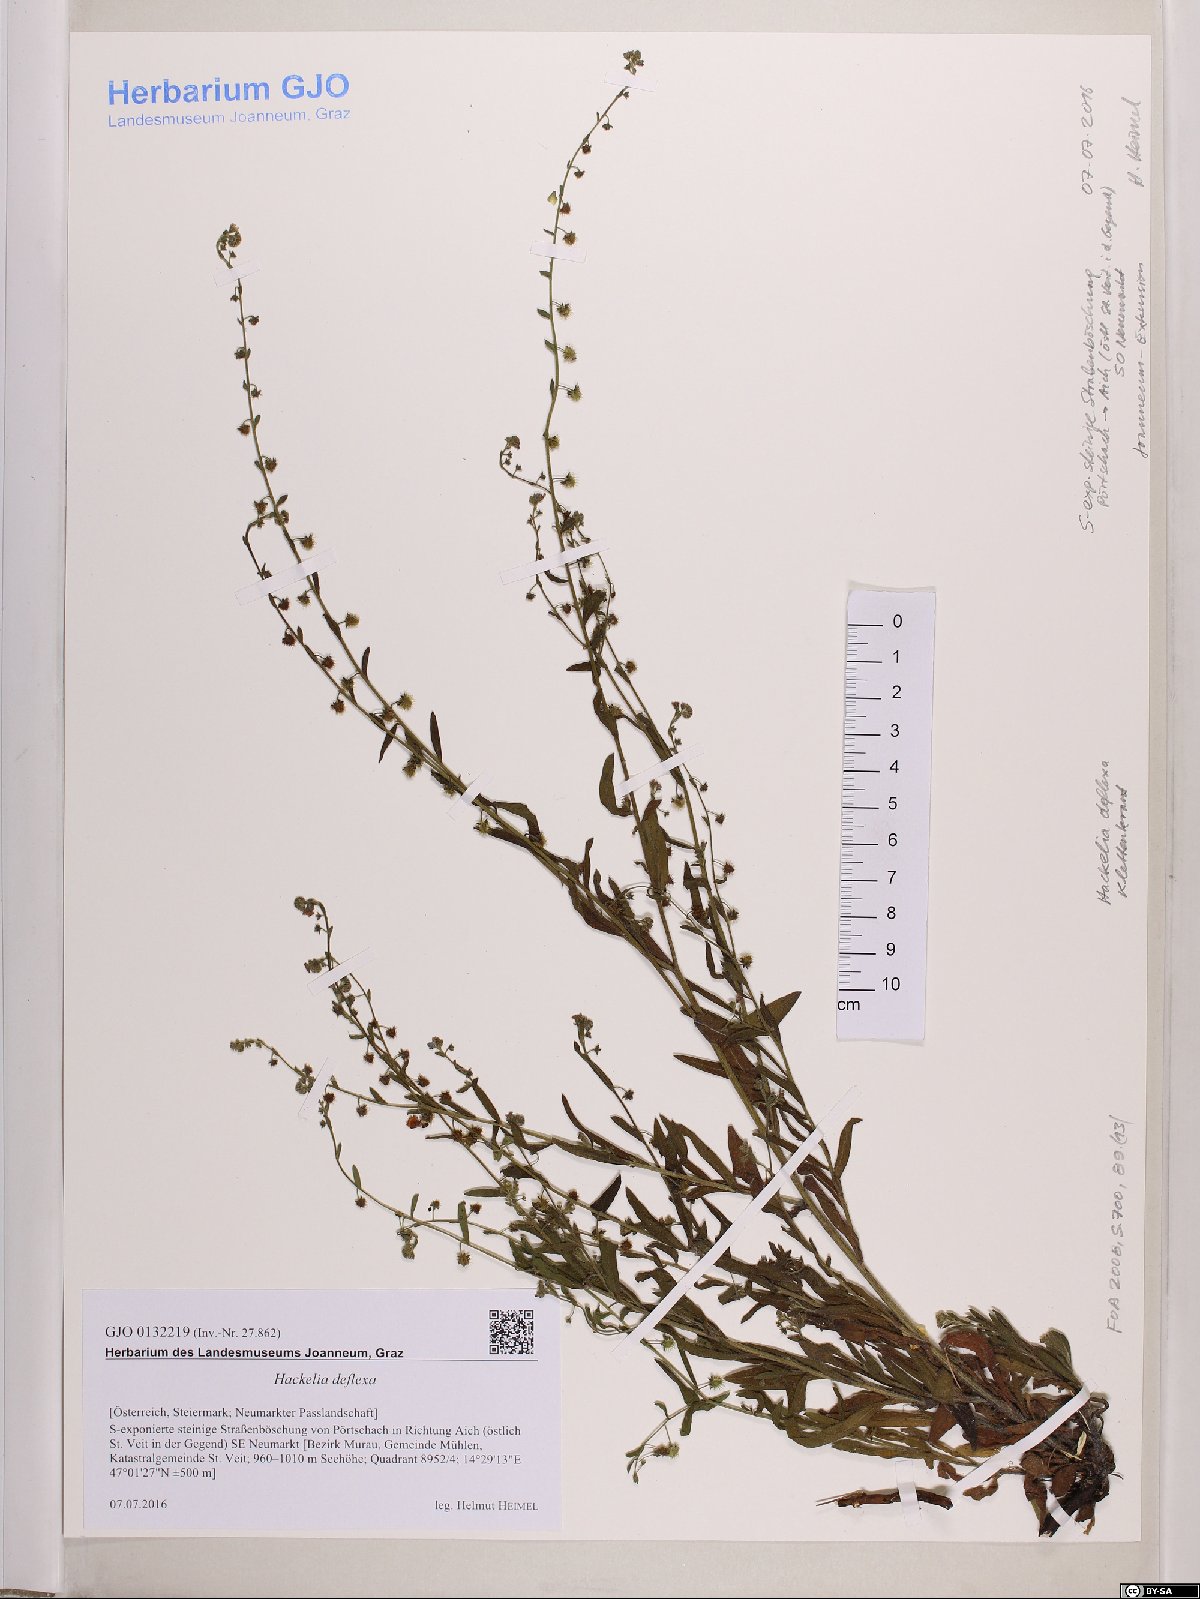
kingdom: Plantae
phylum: Tracheophyta
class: Magnoliopsida
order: Boraginales
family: Boraginaceae
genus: Hackelia
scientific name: Hackelia deflexa
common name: Nodding stickseed
